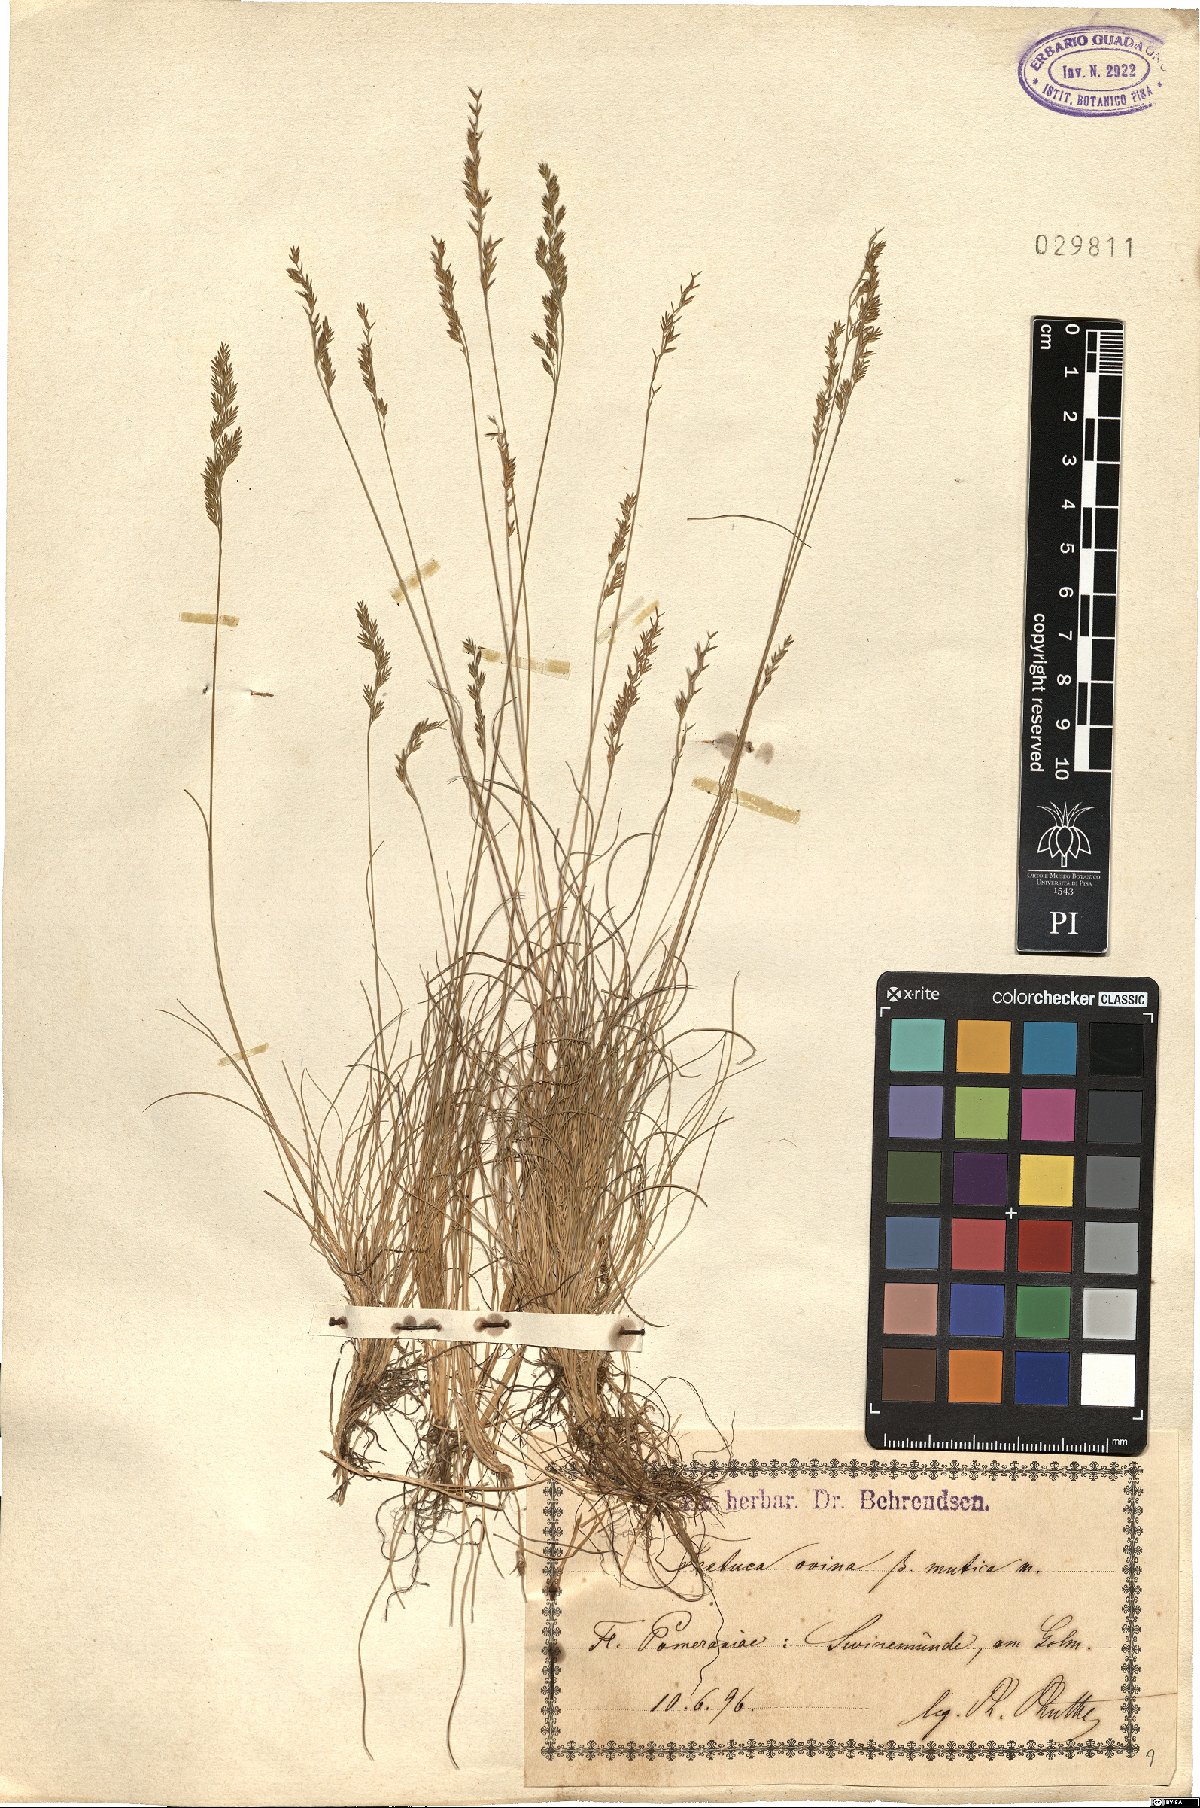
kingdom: Plantae
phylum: Tracheophyta
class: Liliopsida
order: Poales
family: Poaceae
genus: Festuca
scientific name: Festuca filiformis
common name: Fine-leaved sheep's-fescue
